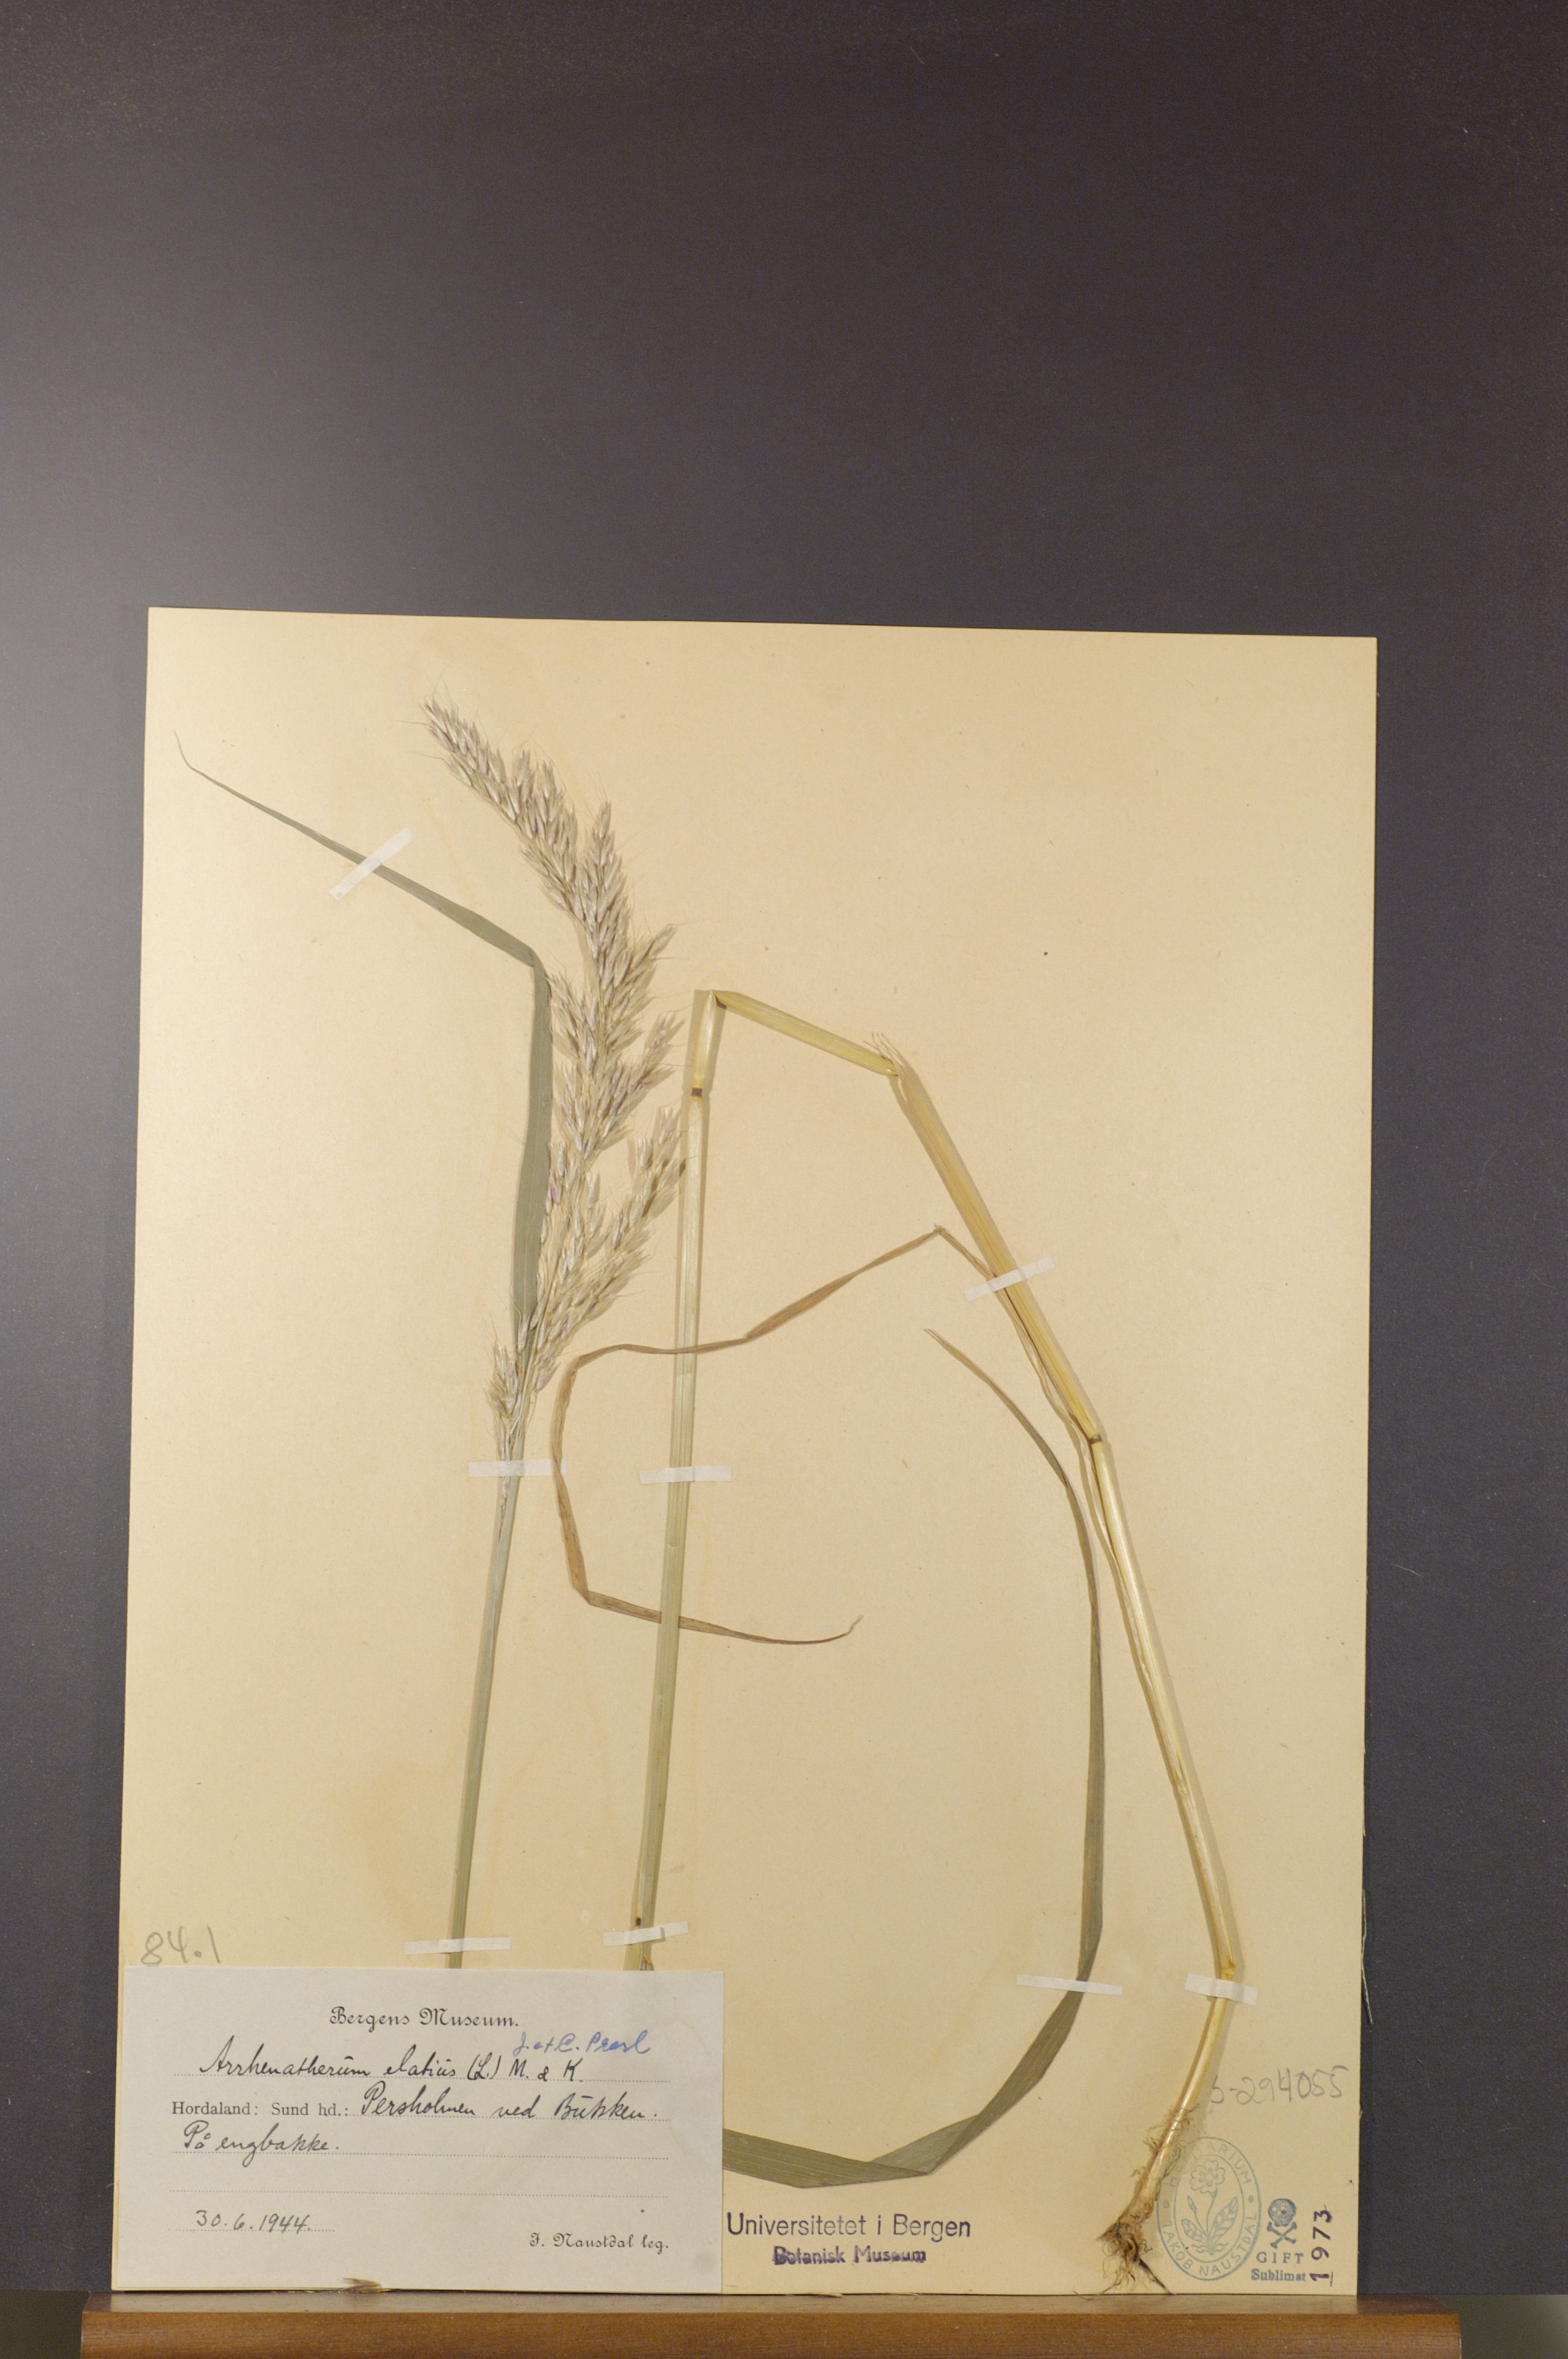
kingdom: Plantae
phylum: Tracheophyta
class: Liliopsida
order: Poales
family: Poaceae
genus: Arrhenatherum
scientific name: Arrhenatherum elatius
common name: Tall oatgrass
